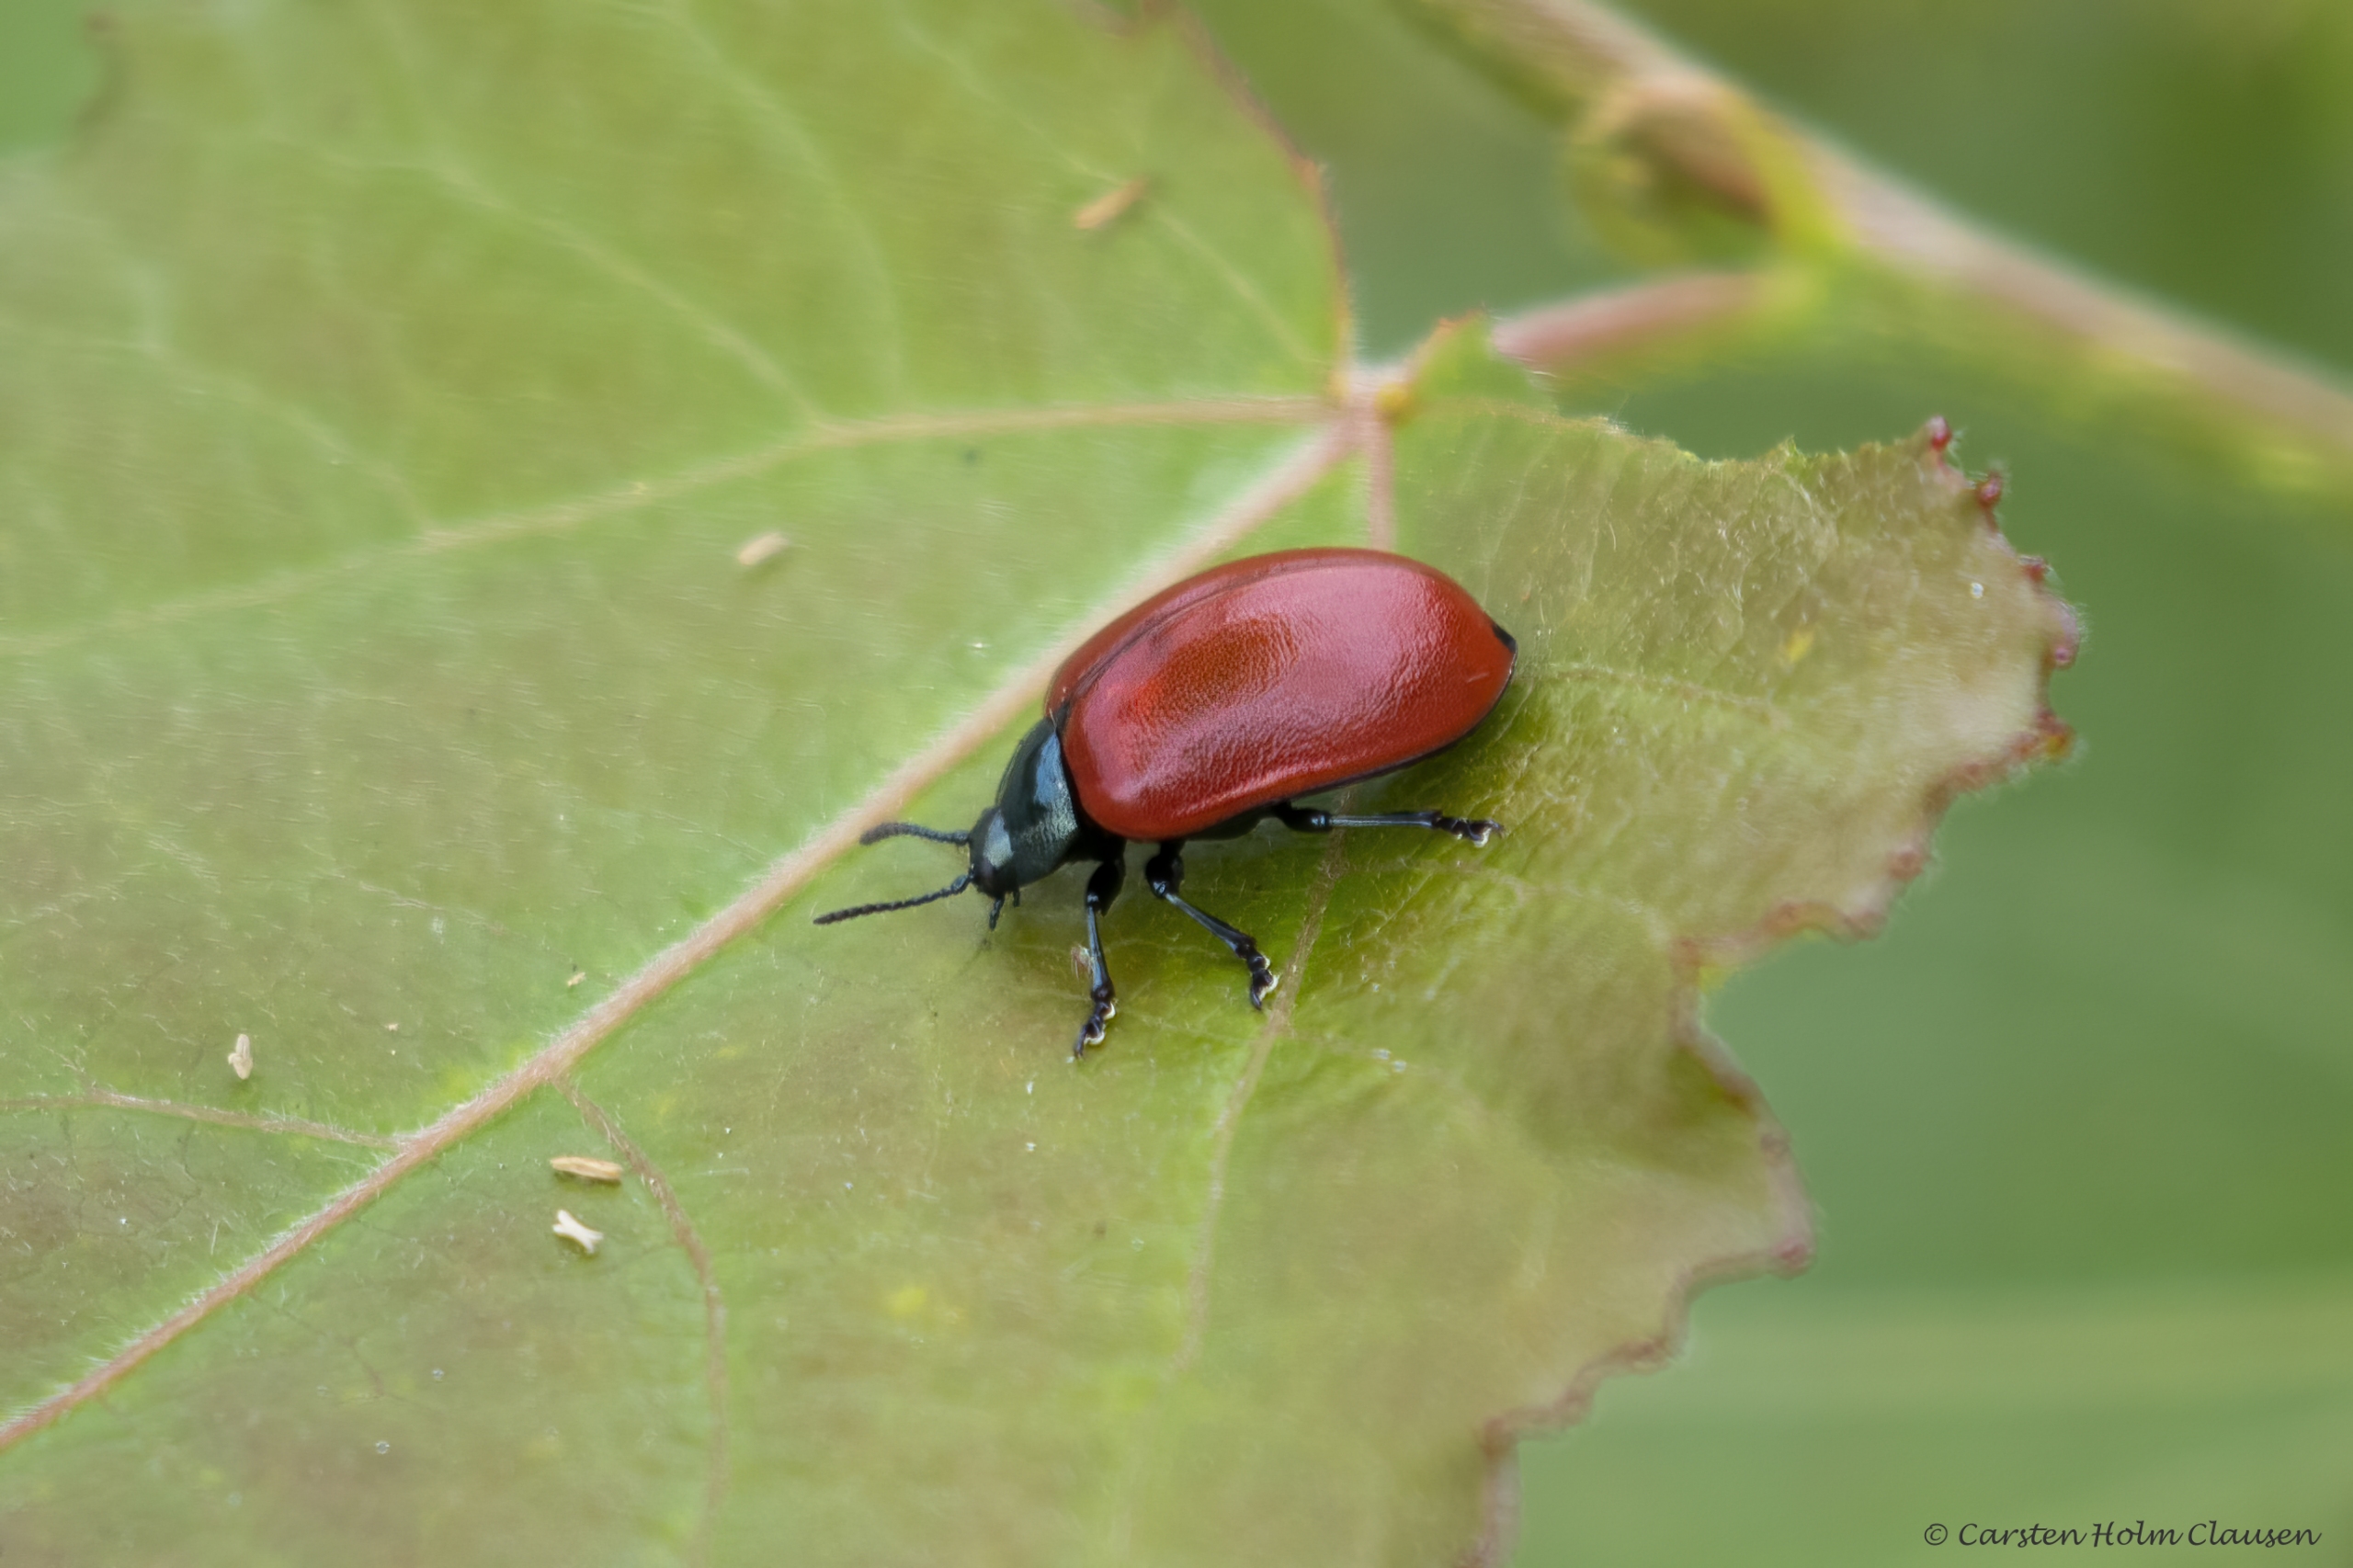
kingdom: Animalia
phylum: Arthropoda
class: Insecta
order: Coleoptera
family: Chrysomelidae
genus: Chrysomela
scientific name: Chrysomela populi
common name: Poppelbladbille
